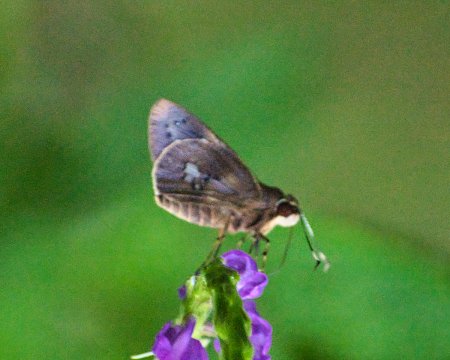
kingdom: Animalia
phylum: Arthropoda
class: Insecta
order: Lepidoptera
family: Hesperiidae
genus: Carystoides
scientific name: Carystoides lebbaeus
